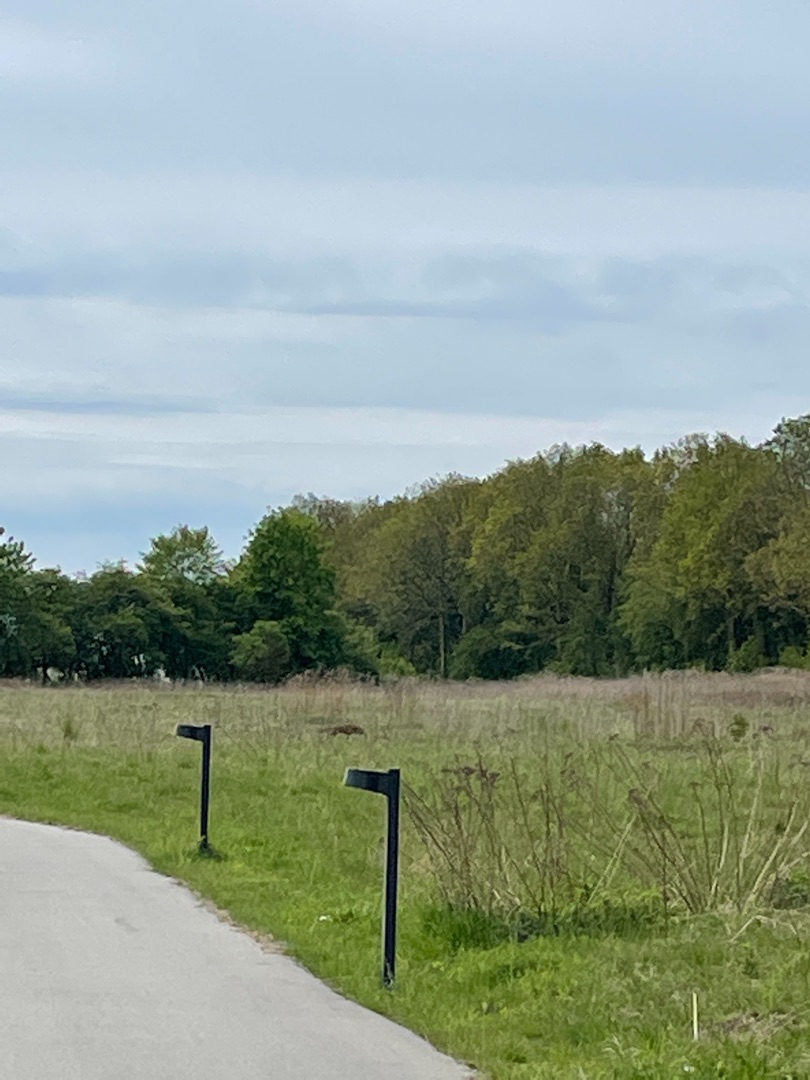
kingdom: Animalia
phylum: Chordata
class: Mammalia
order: Carnivora
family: Canidae
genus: Vulpes
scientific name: Vulpes vulpes
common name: Ræv
